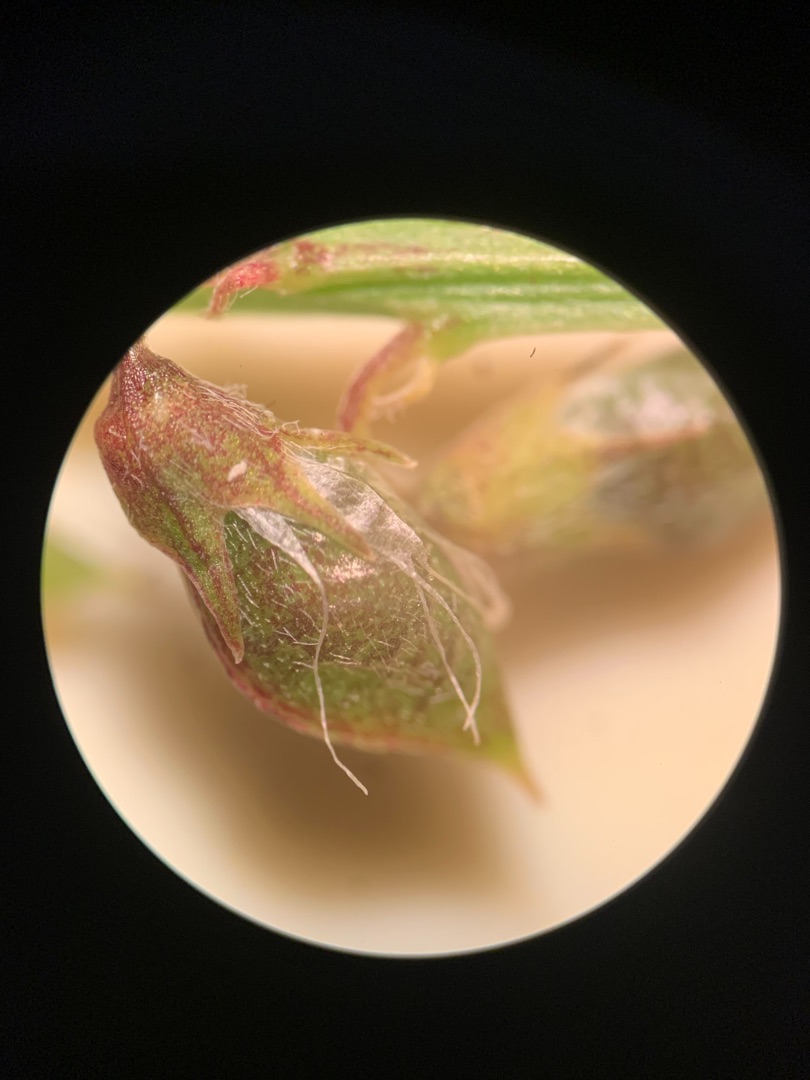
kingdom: Plantae
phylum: Tracheophyta
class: Magnoliopsida
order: Fabales
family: Fabaceae
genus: Melilotus
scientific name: Melilotus altissimus
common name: Høj stenkløver
